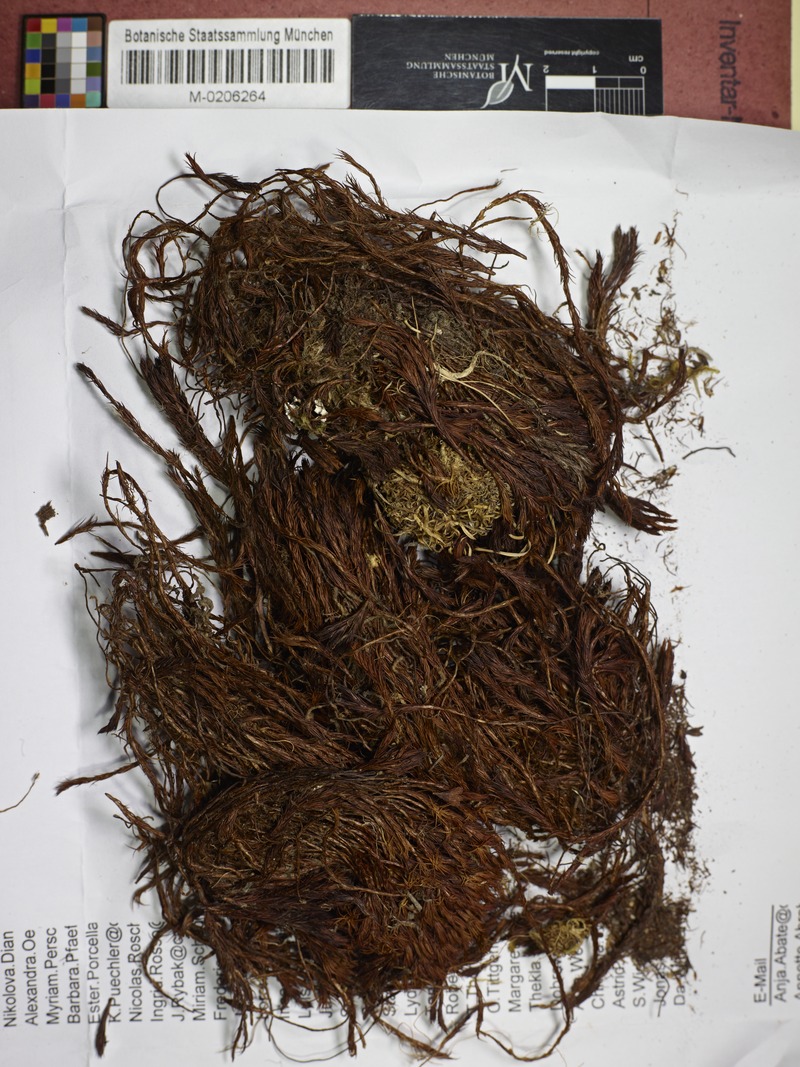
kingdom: Fungi
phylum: Ascomycota
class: Leotiomycetes
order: Helotiales
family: Chlorociboriaceae
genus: Chlorociboria
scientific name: Chlorociboria lamellicola
